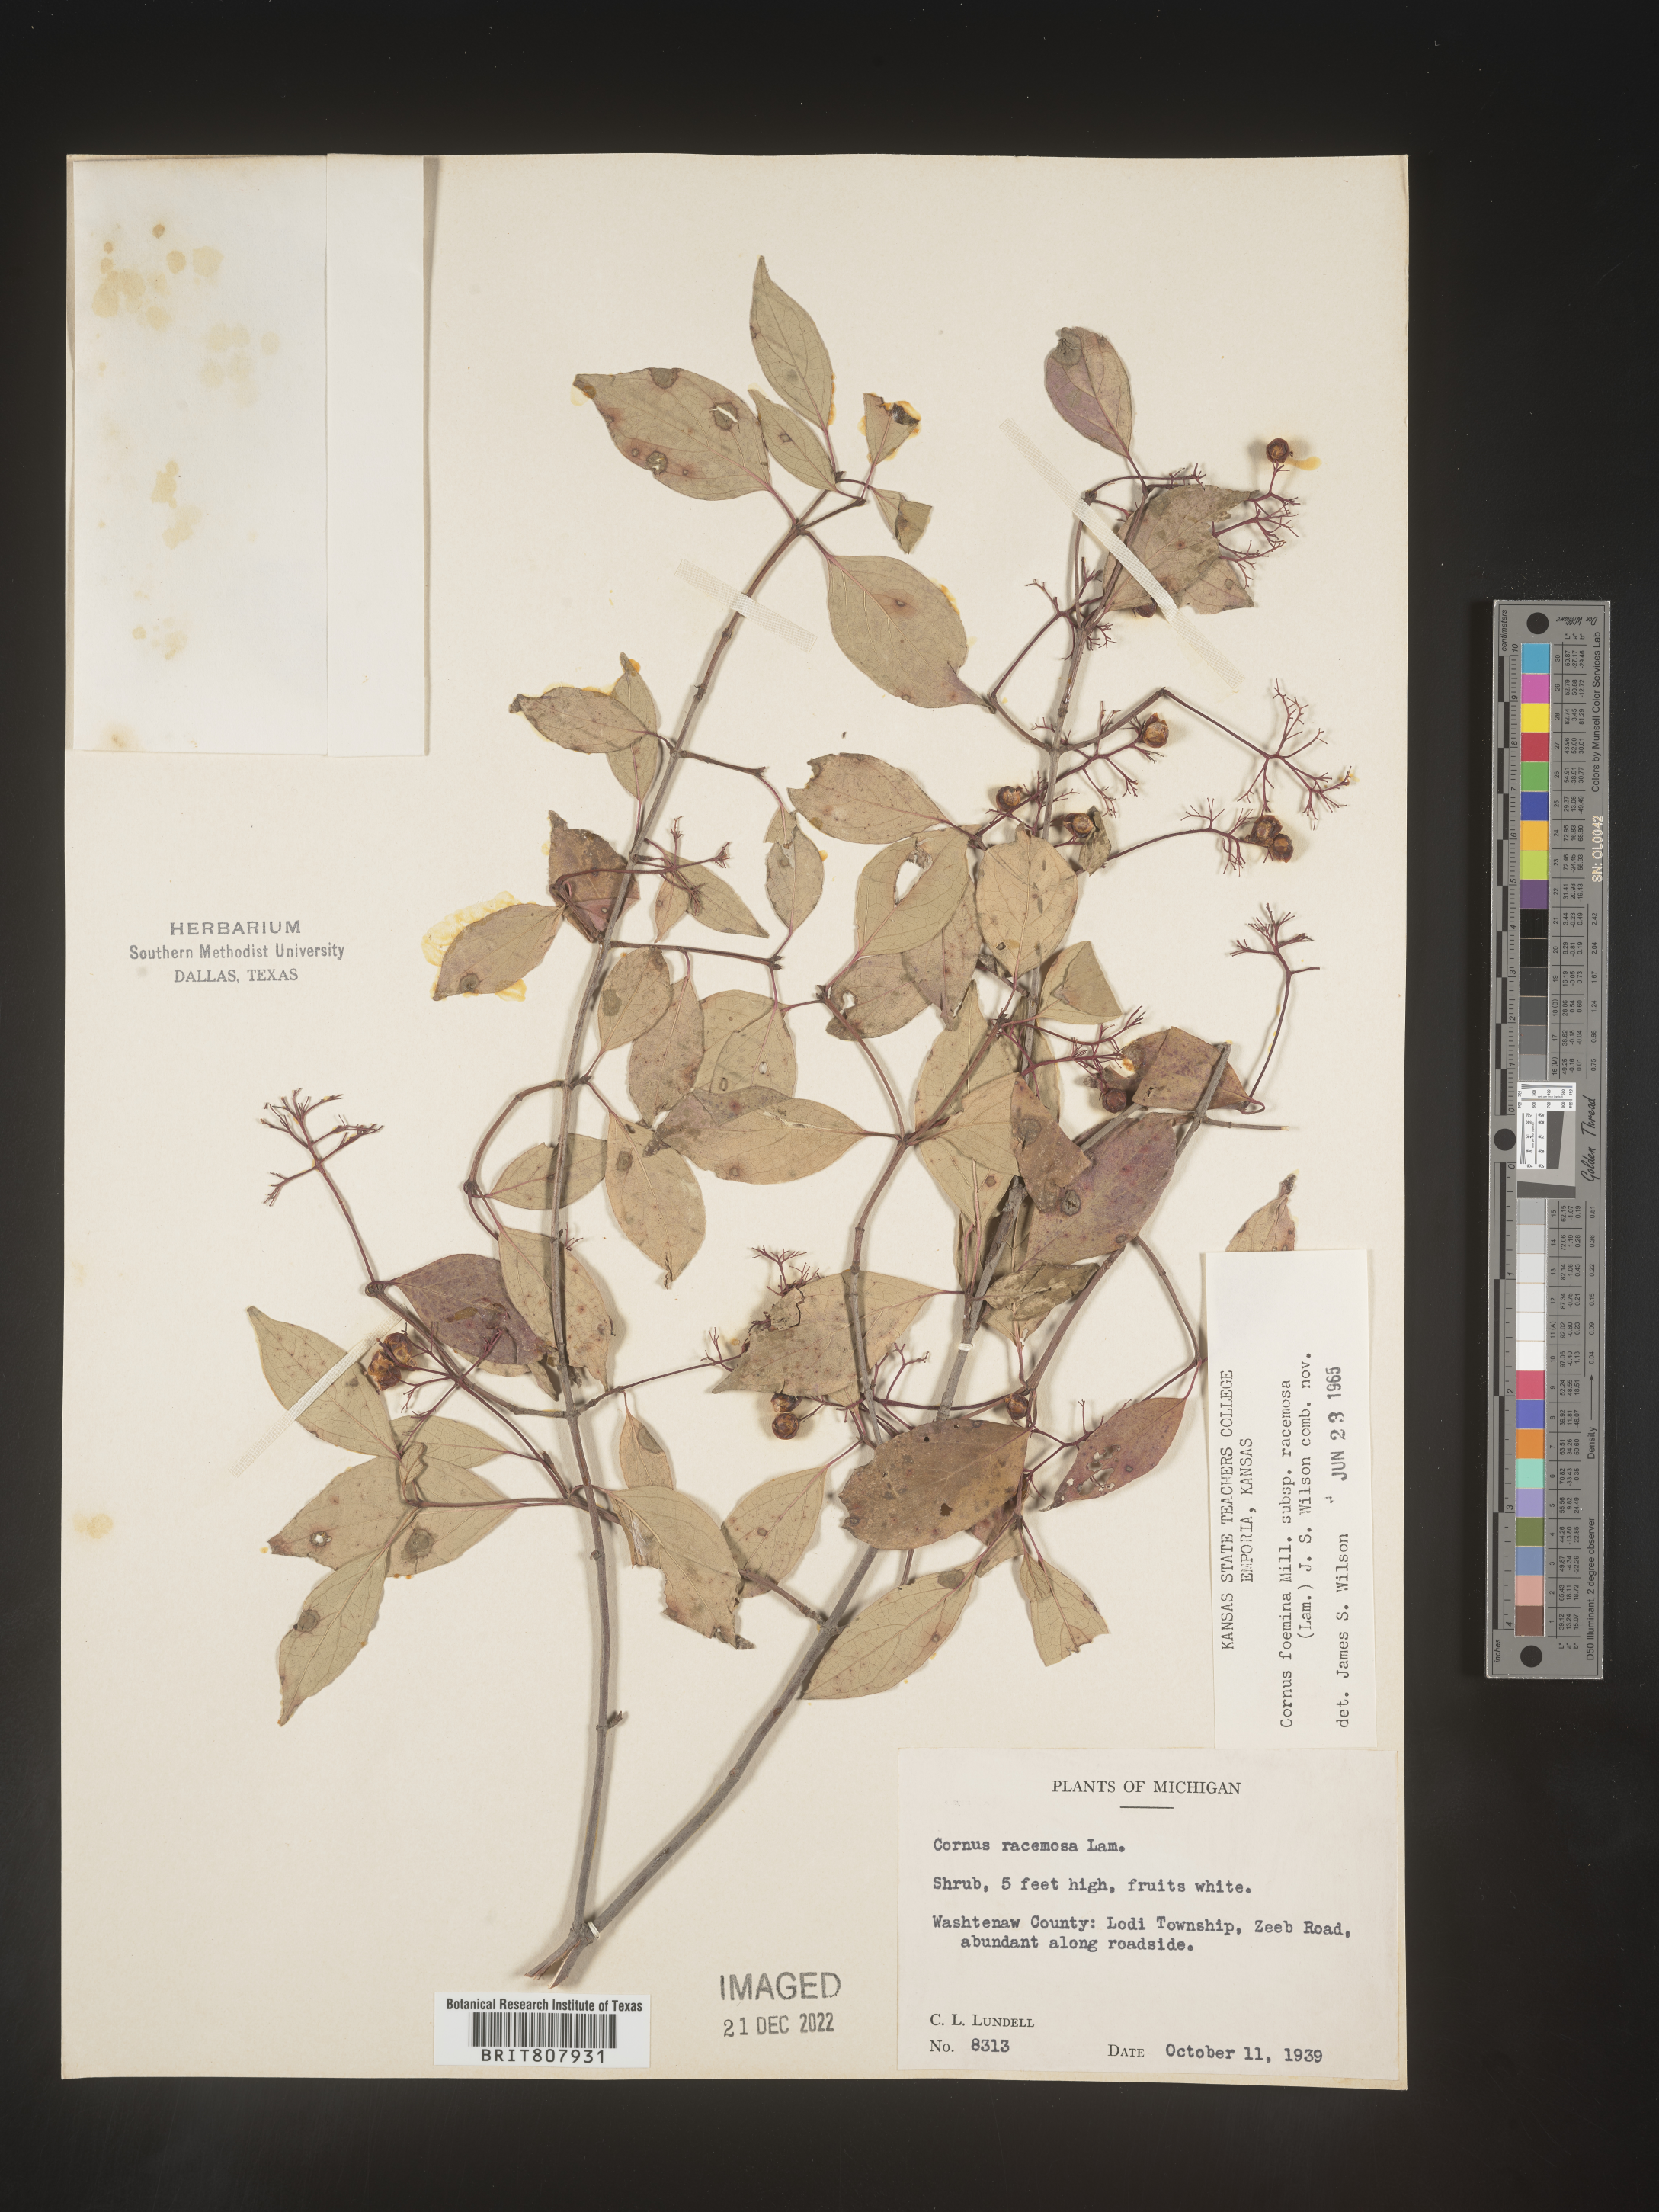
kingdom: Plantae
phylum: Tracheophyta
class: Magnoliopsida
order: Cornales
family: Cornaceae
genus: Cornus
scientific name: Cornus racemosa
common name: Panicled dogwood
